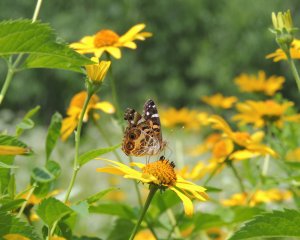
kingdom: Animalia
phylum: Arthropoda
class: Insecta
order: Lepidoptera
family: Nymphalidae
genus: Vanessa
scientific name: Vanessa virginiensis
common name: American Lady
